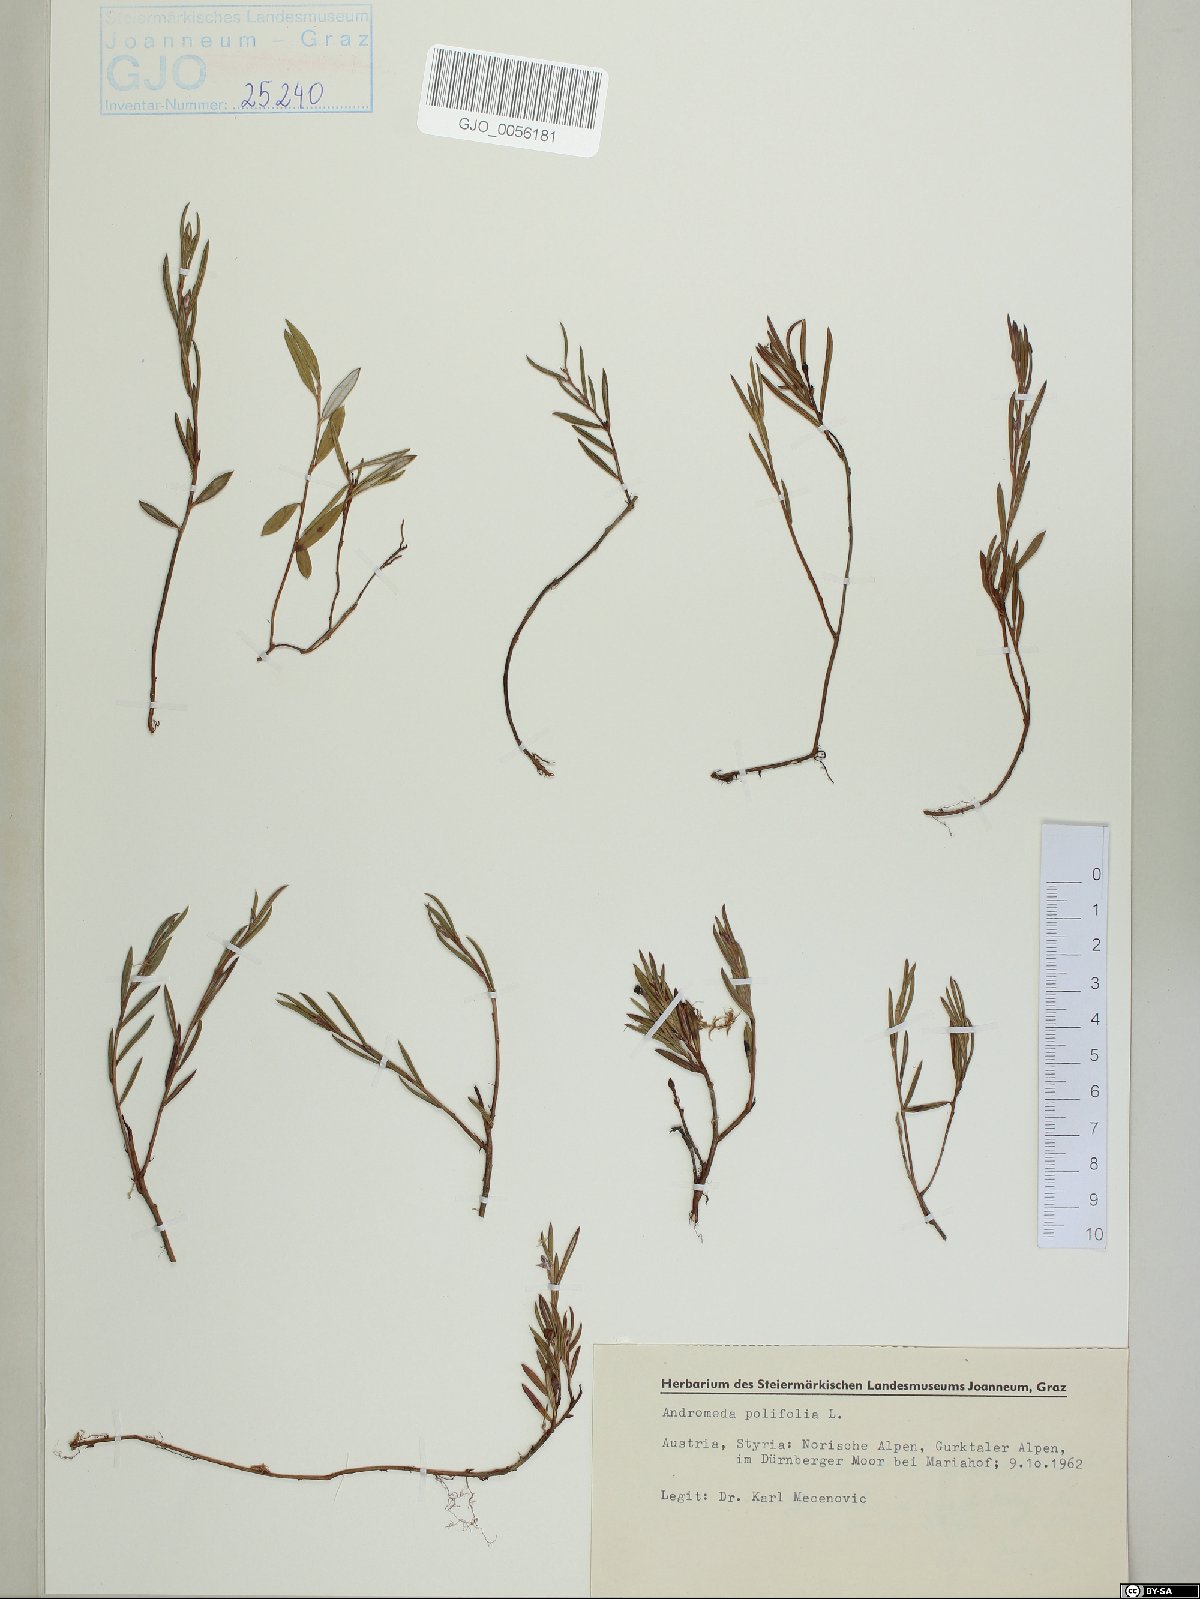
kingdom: Plantae
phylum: Tracheophyta
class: Magnoliopsida
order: Ericales
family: Ericaceae
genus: Andromeda
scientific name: Andromeda polifolia
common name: Bog-rosemary
